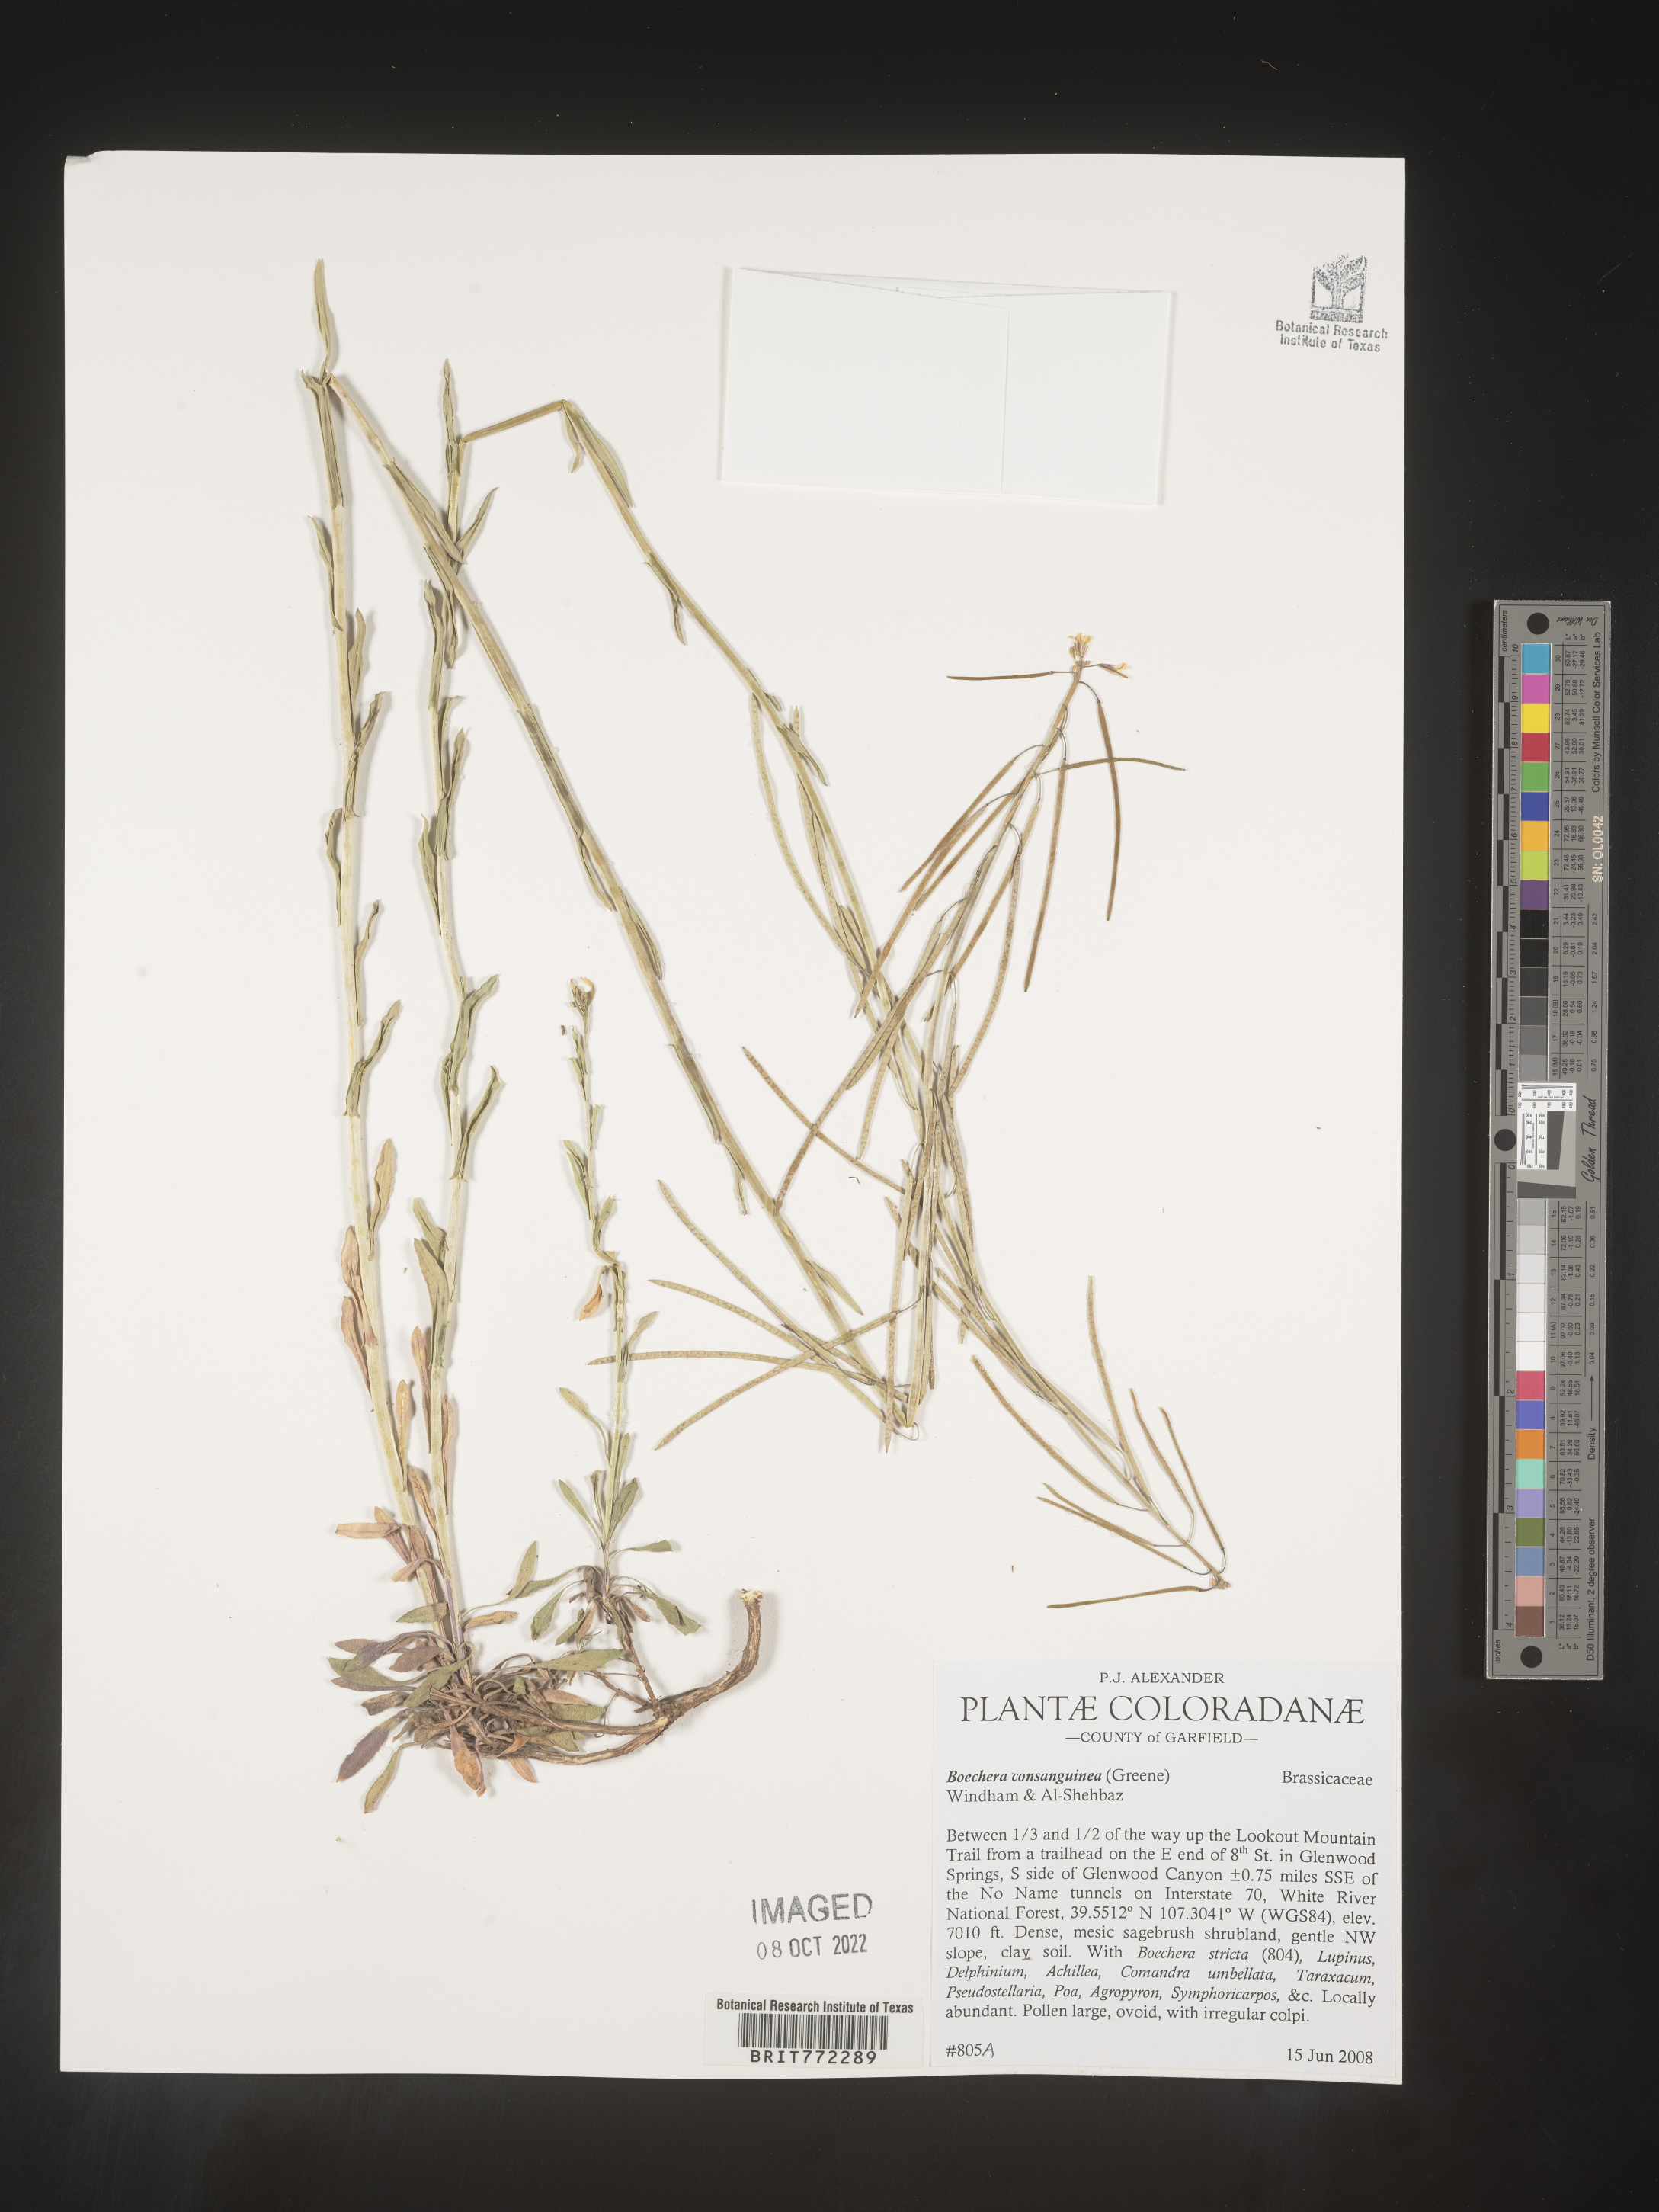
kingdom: Plantae
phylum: Tracheophyta
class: Magnoliopsida
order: Brassicales
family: Brassicaceae
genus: Boechera
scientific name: Boechera
